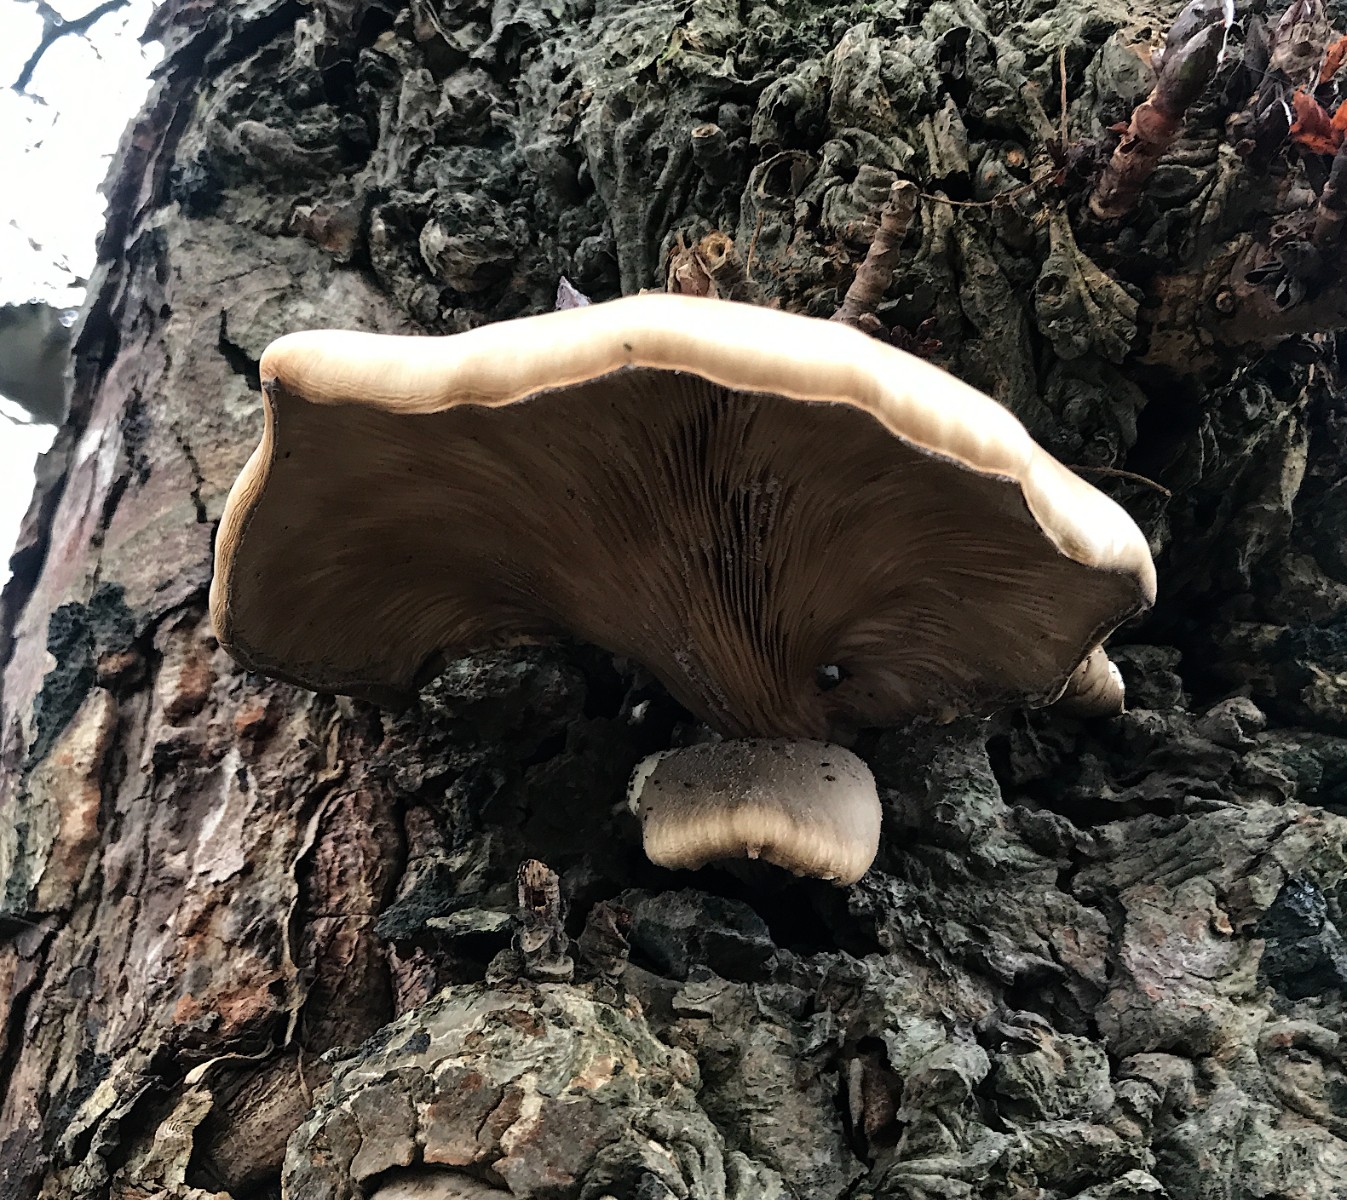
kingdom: Fungi
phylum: Basidiomycota
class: Agaricomycetes
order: Agaricales
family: Pleurotaceae
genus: Pleurotus
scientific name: Pleurotus ostreatus
